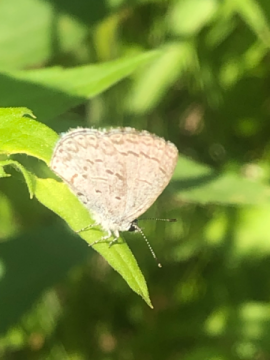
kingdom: Animalia
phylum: Arthropoda
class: Insecta
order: Lepidoptera
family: Lycaenidae
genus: Celastrina
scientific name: Celastrina lucia
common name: Northern Spring Azure
